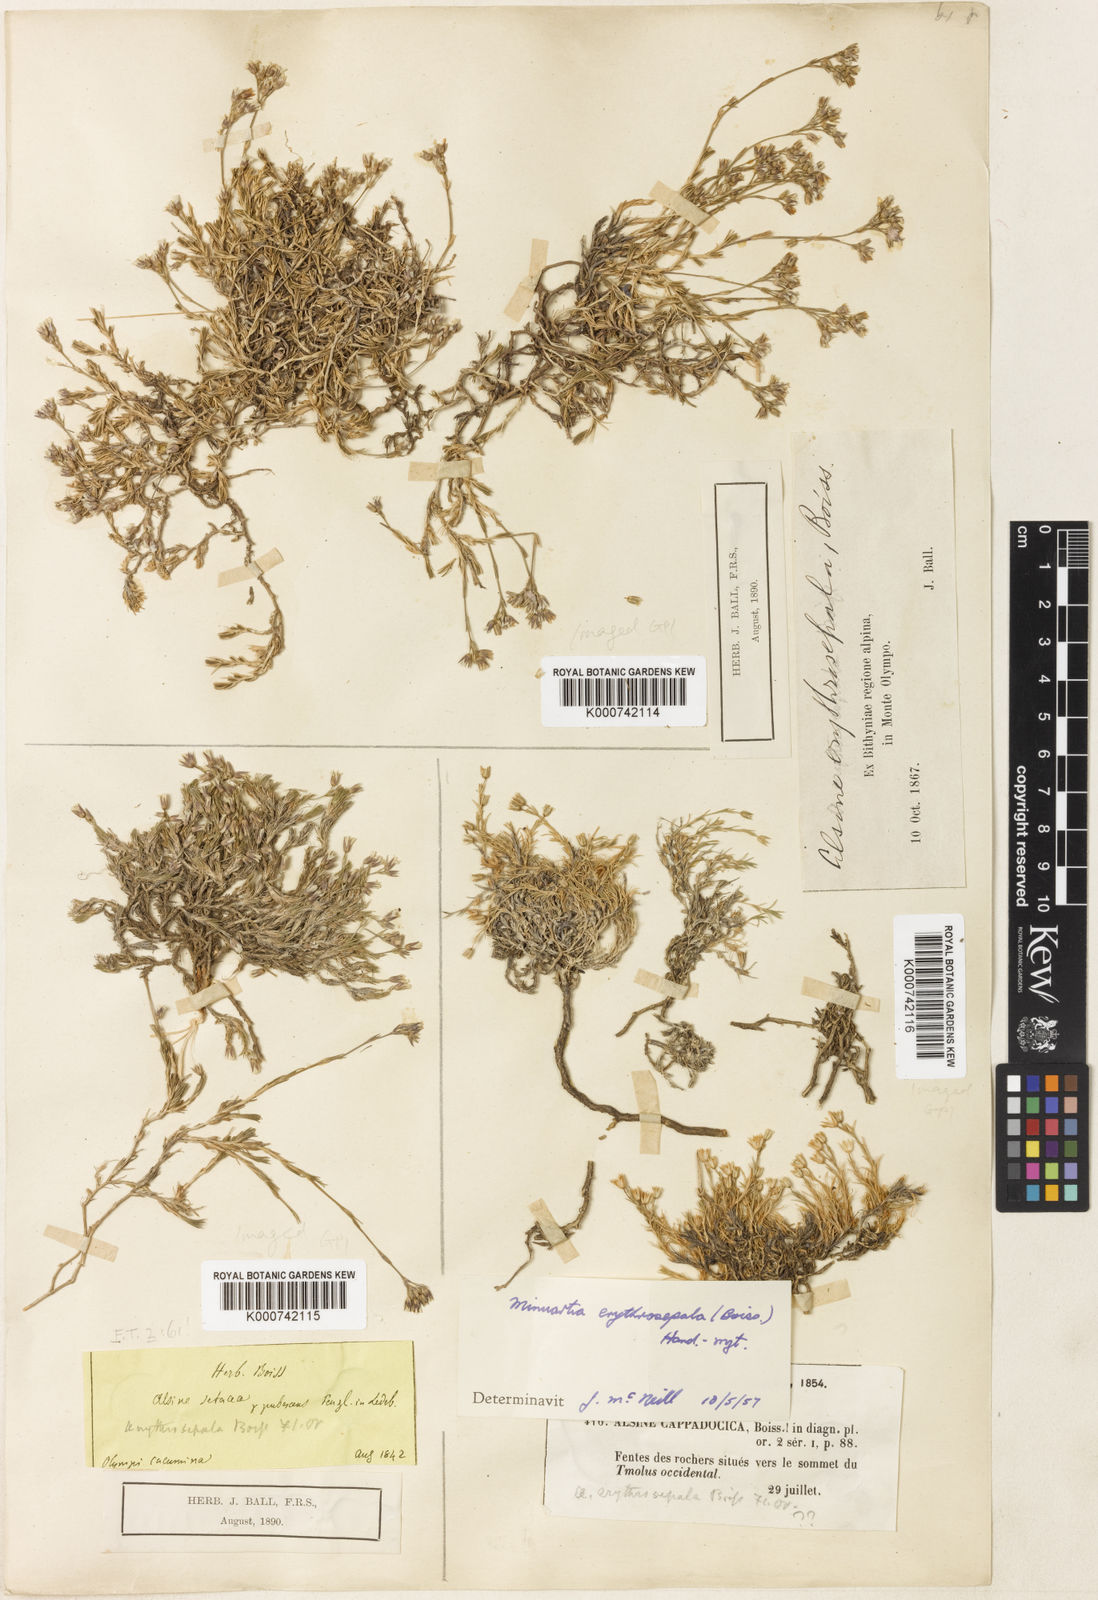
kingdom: Plantae
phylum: Tracheophyta
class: Magnoliopsida
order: Caryophyllales
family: Caryophyllaceae
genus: Minuartia
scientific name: Minuartia erythrosepala
